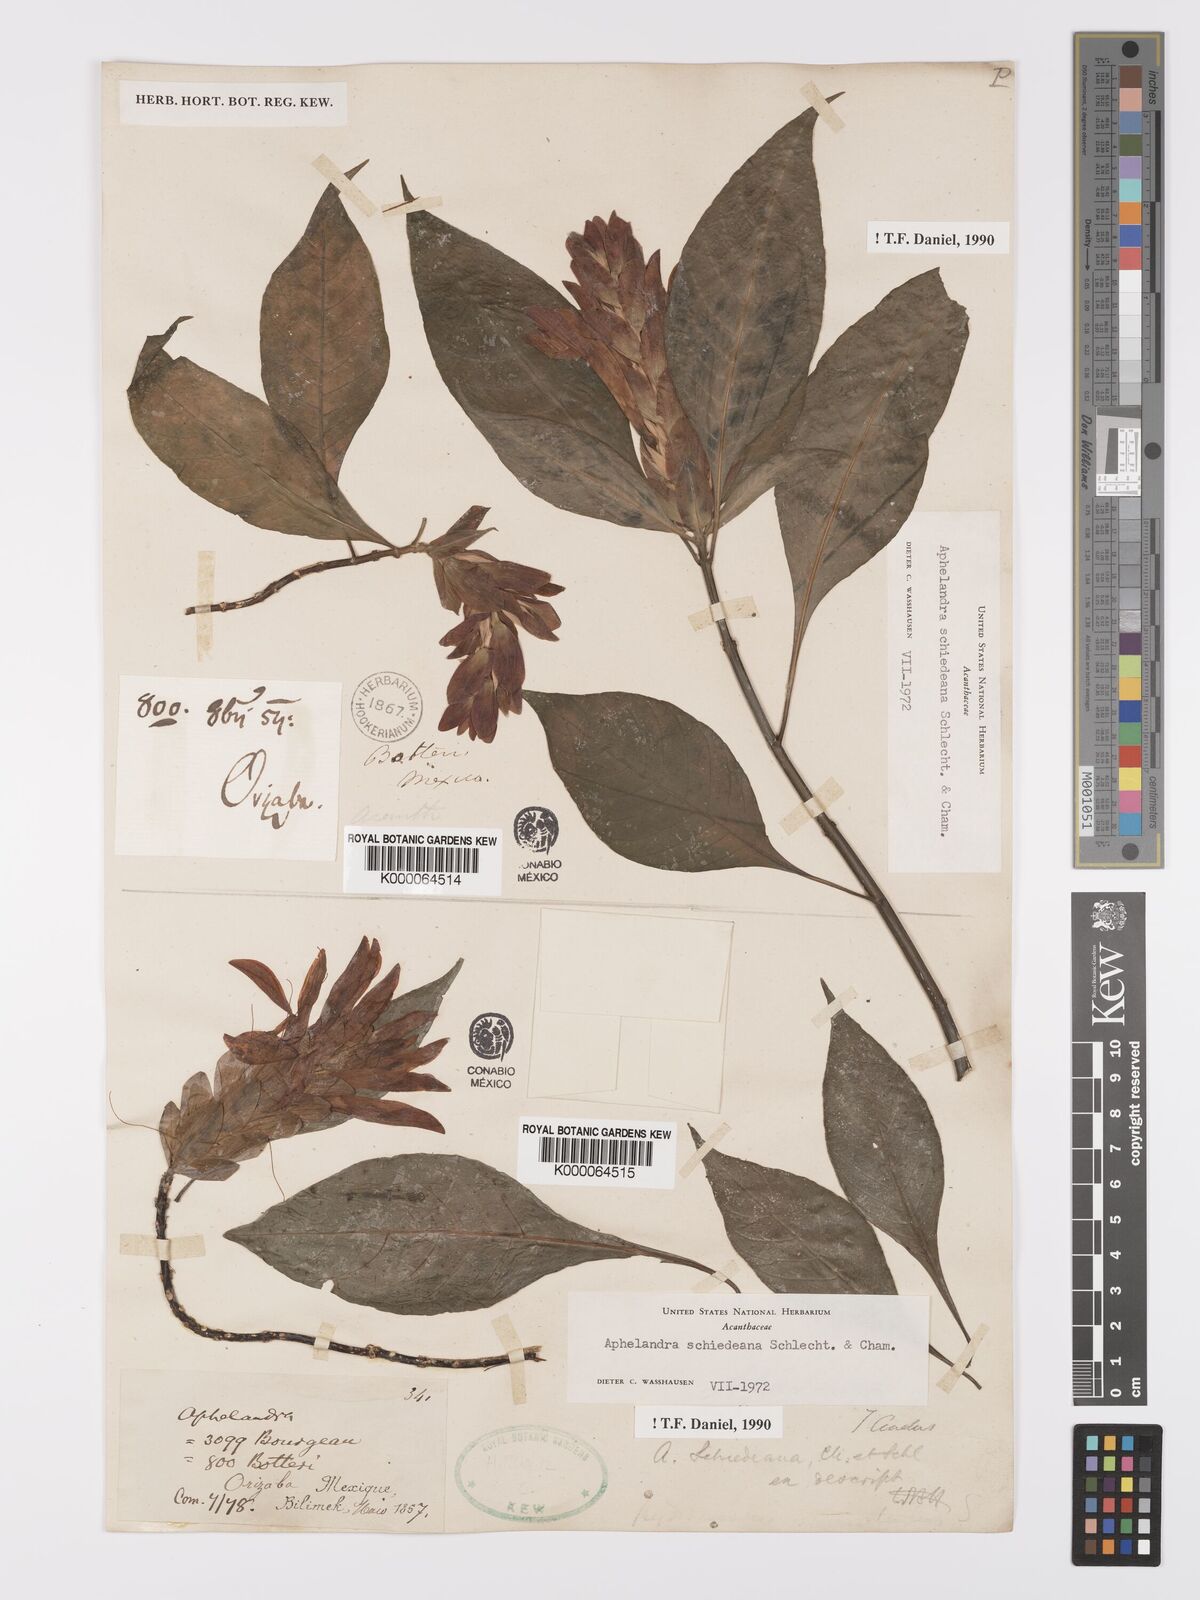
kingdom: Plantae
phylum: Tracheophyta
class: Magnoliopsida
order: Lamiales
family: Acanthaceae
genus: Aphelandra
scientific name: Aphelandra schiedeana
